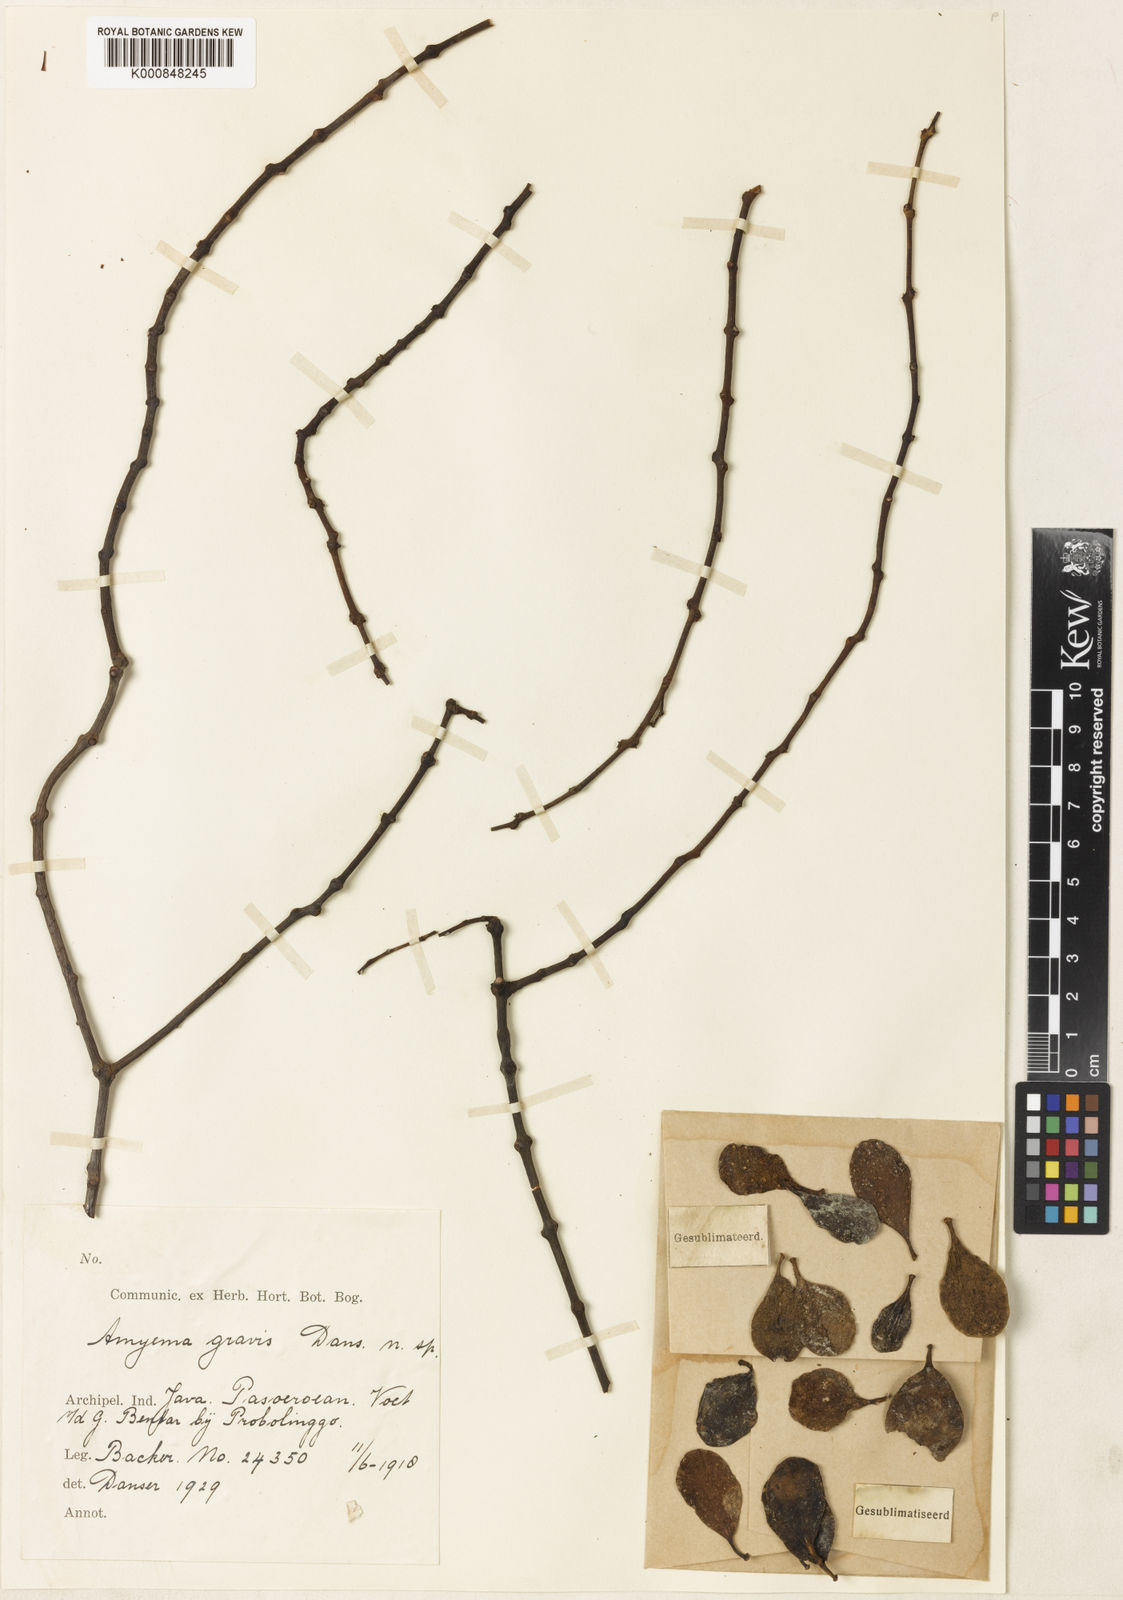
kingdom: Plantae
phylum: Tracheophyta
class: Magnoliopsida
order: Santalales
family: Loranthaceae
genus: Amyema
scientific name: Amyema gravis
